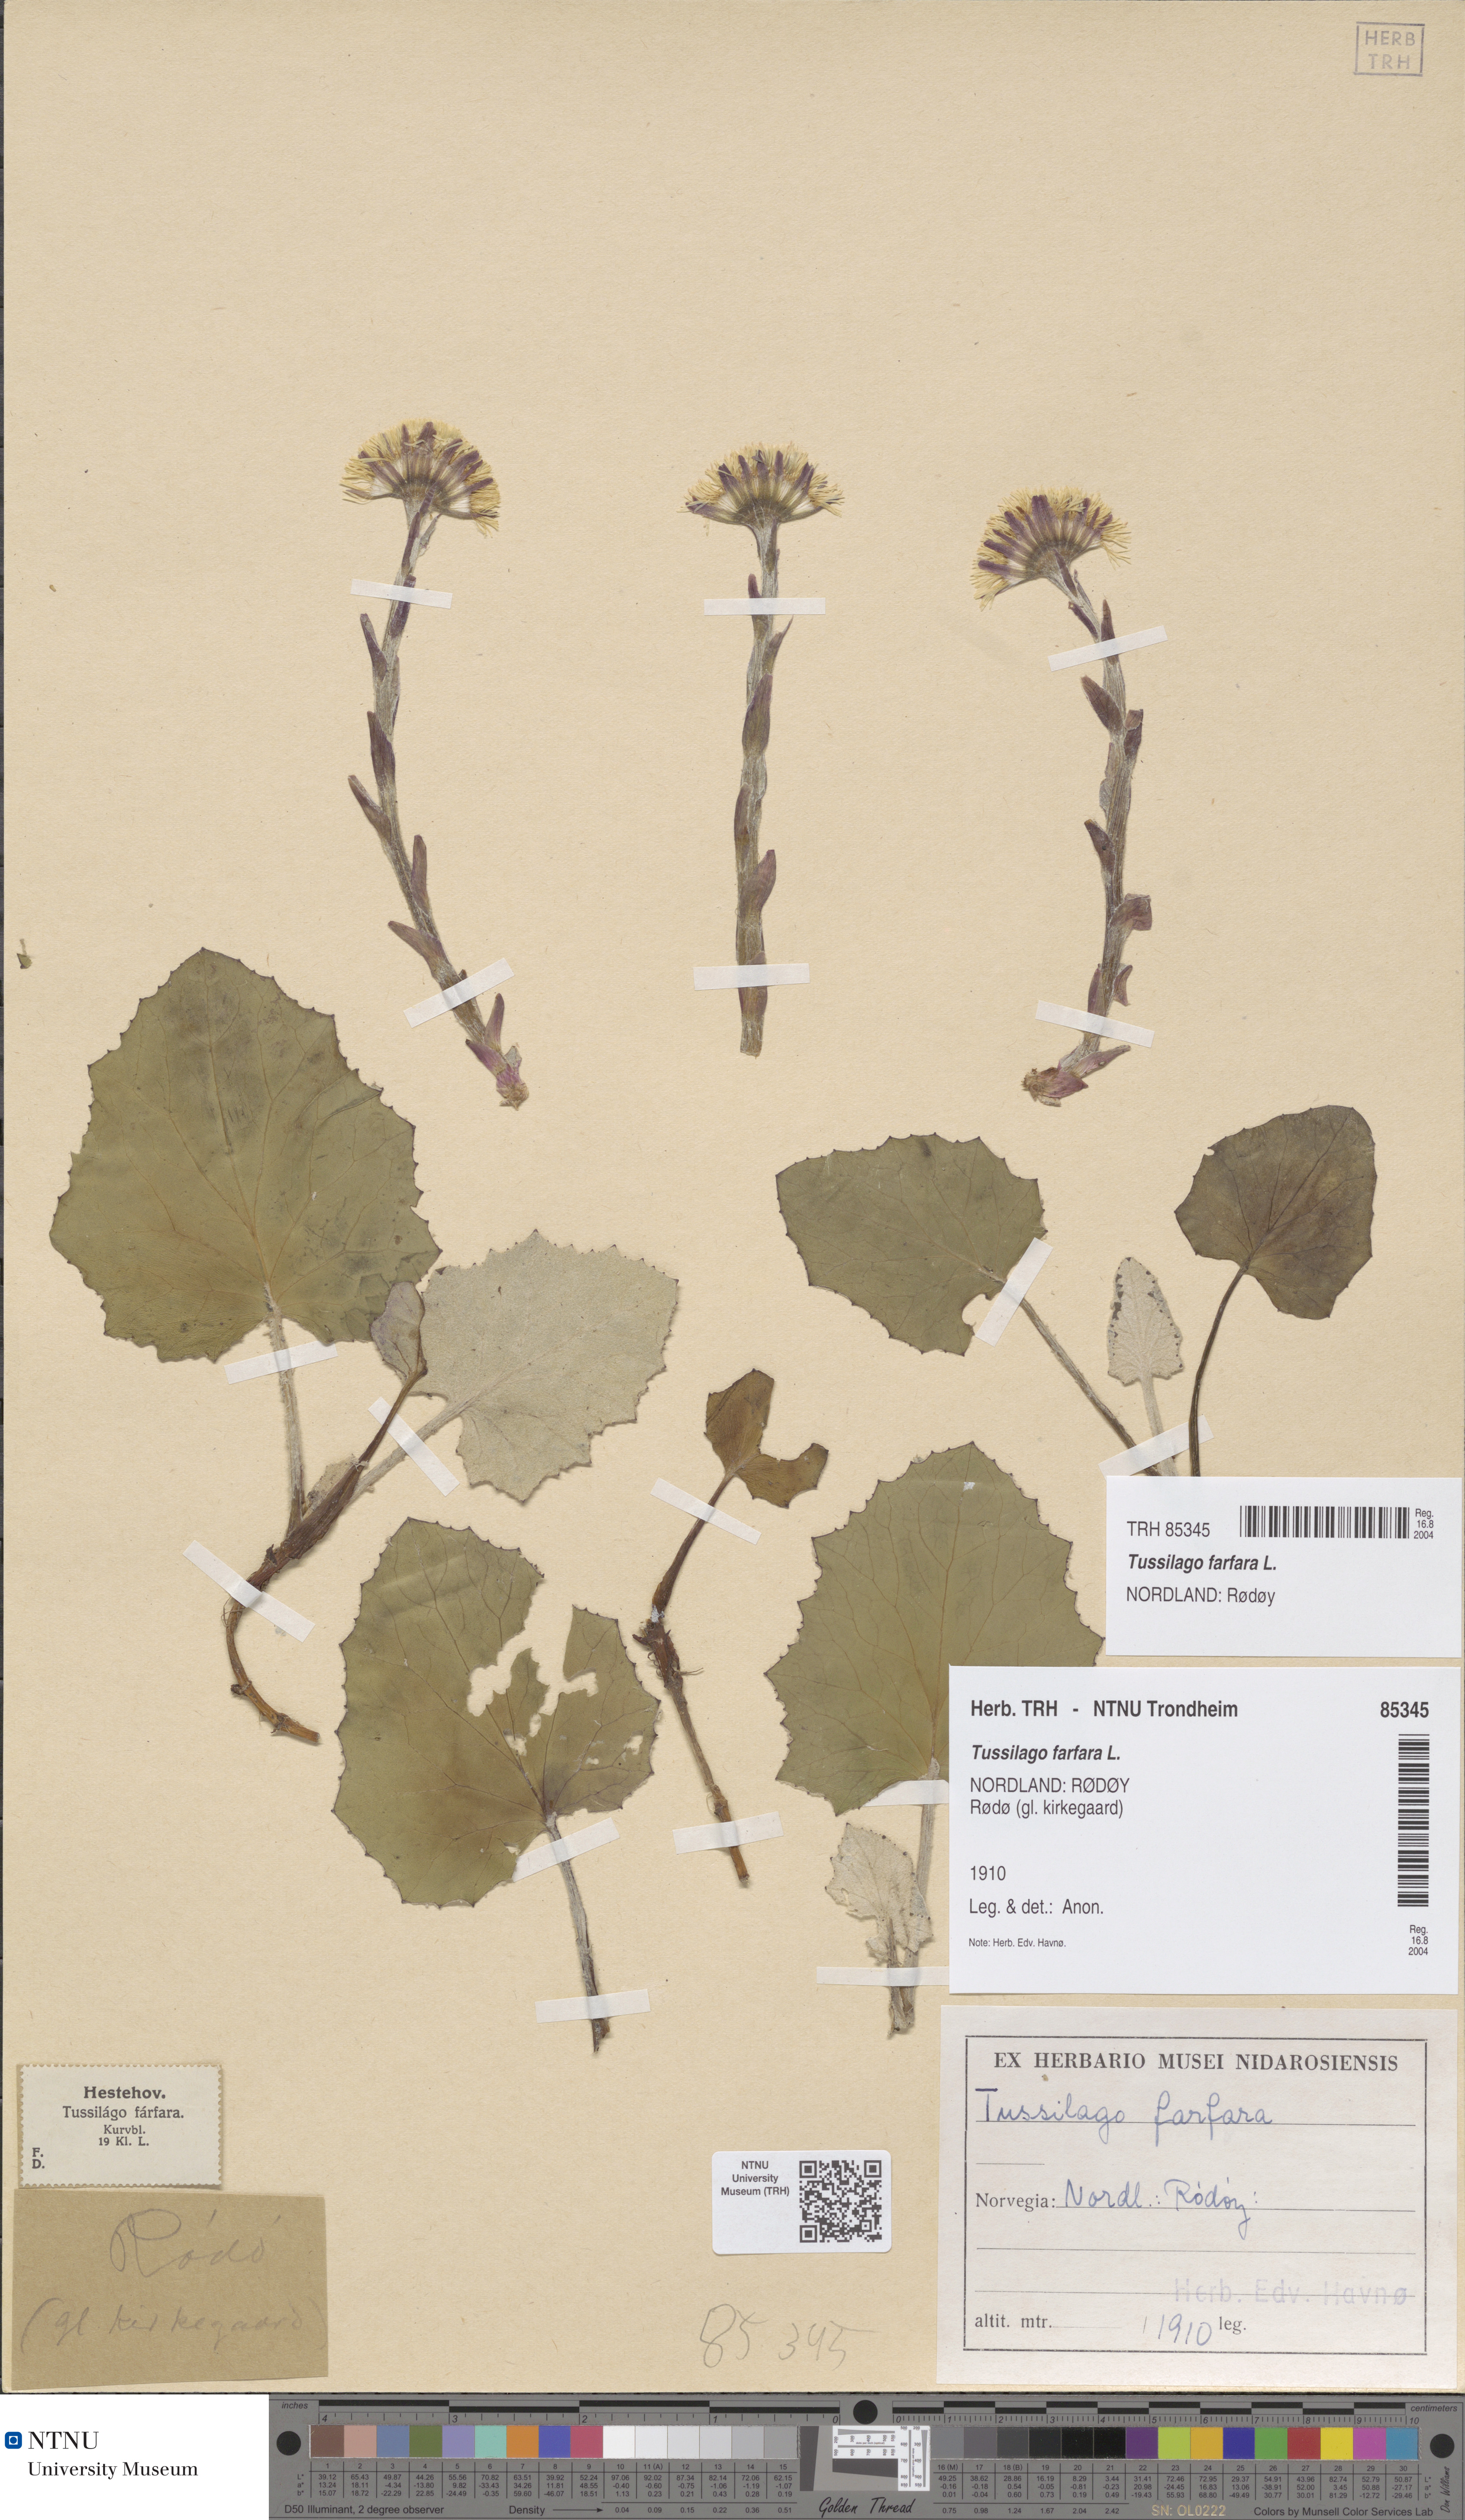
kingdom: Plantae
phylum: Tracheophyta
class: Magnoliopsida
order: Asterales
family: Asteraceae
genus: Tussilago
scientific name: Tussilago farfara
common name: Coltsfoot
